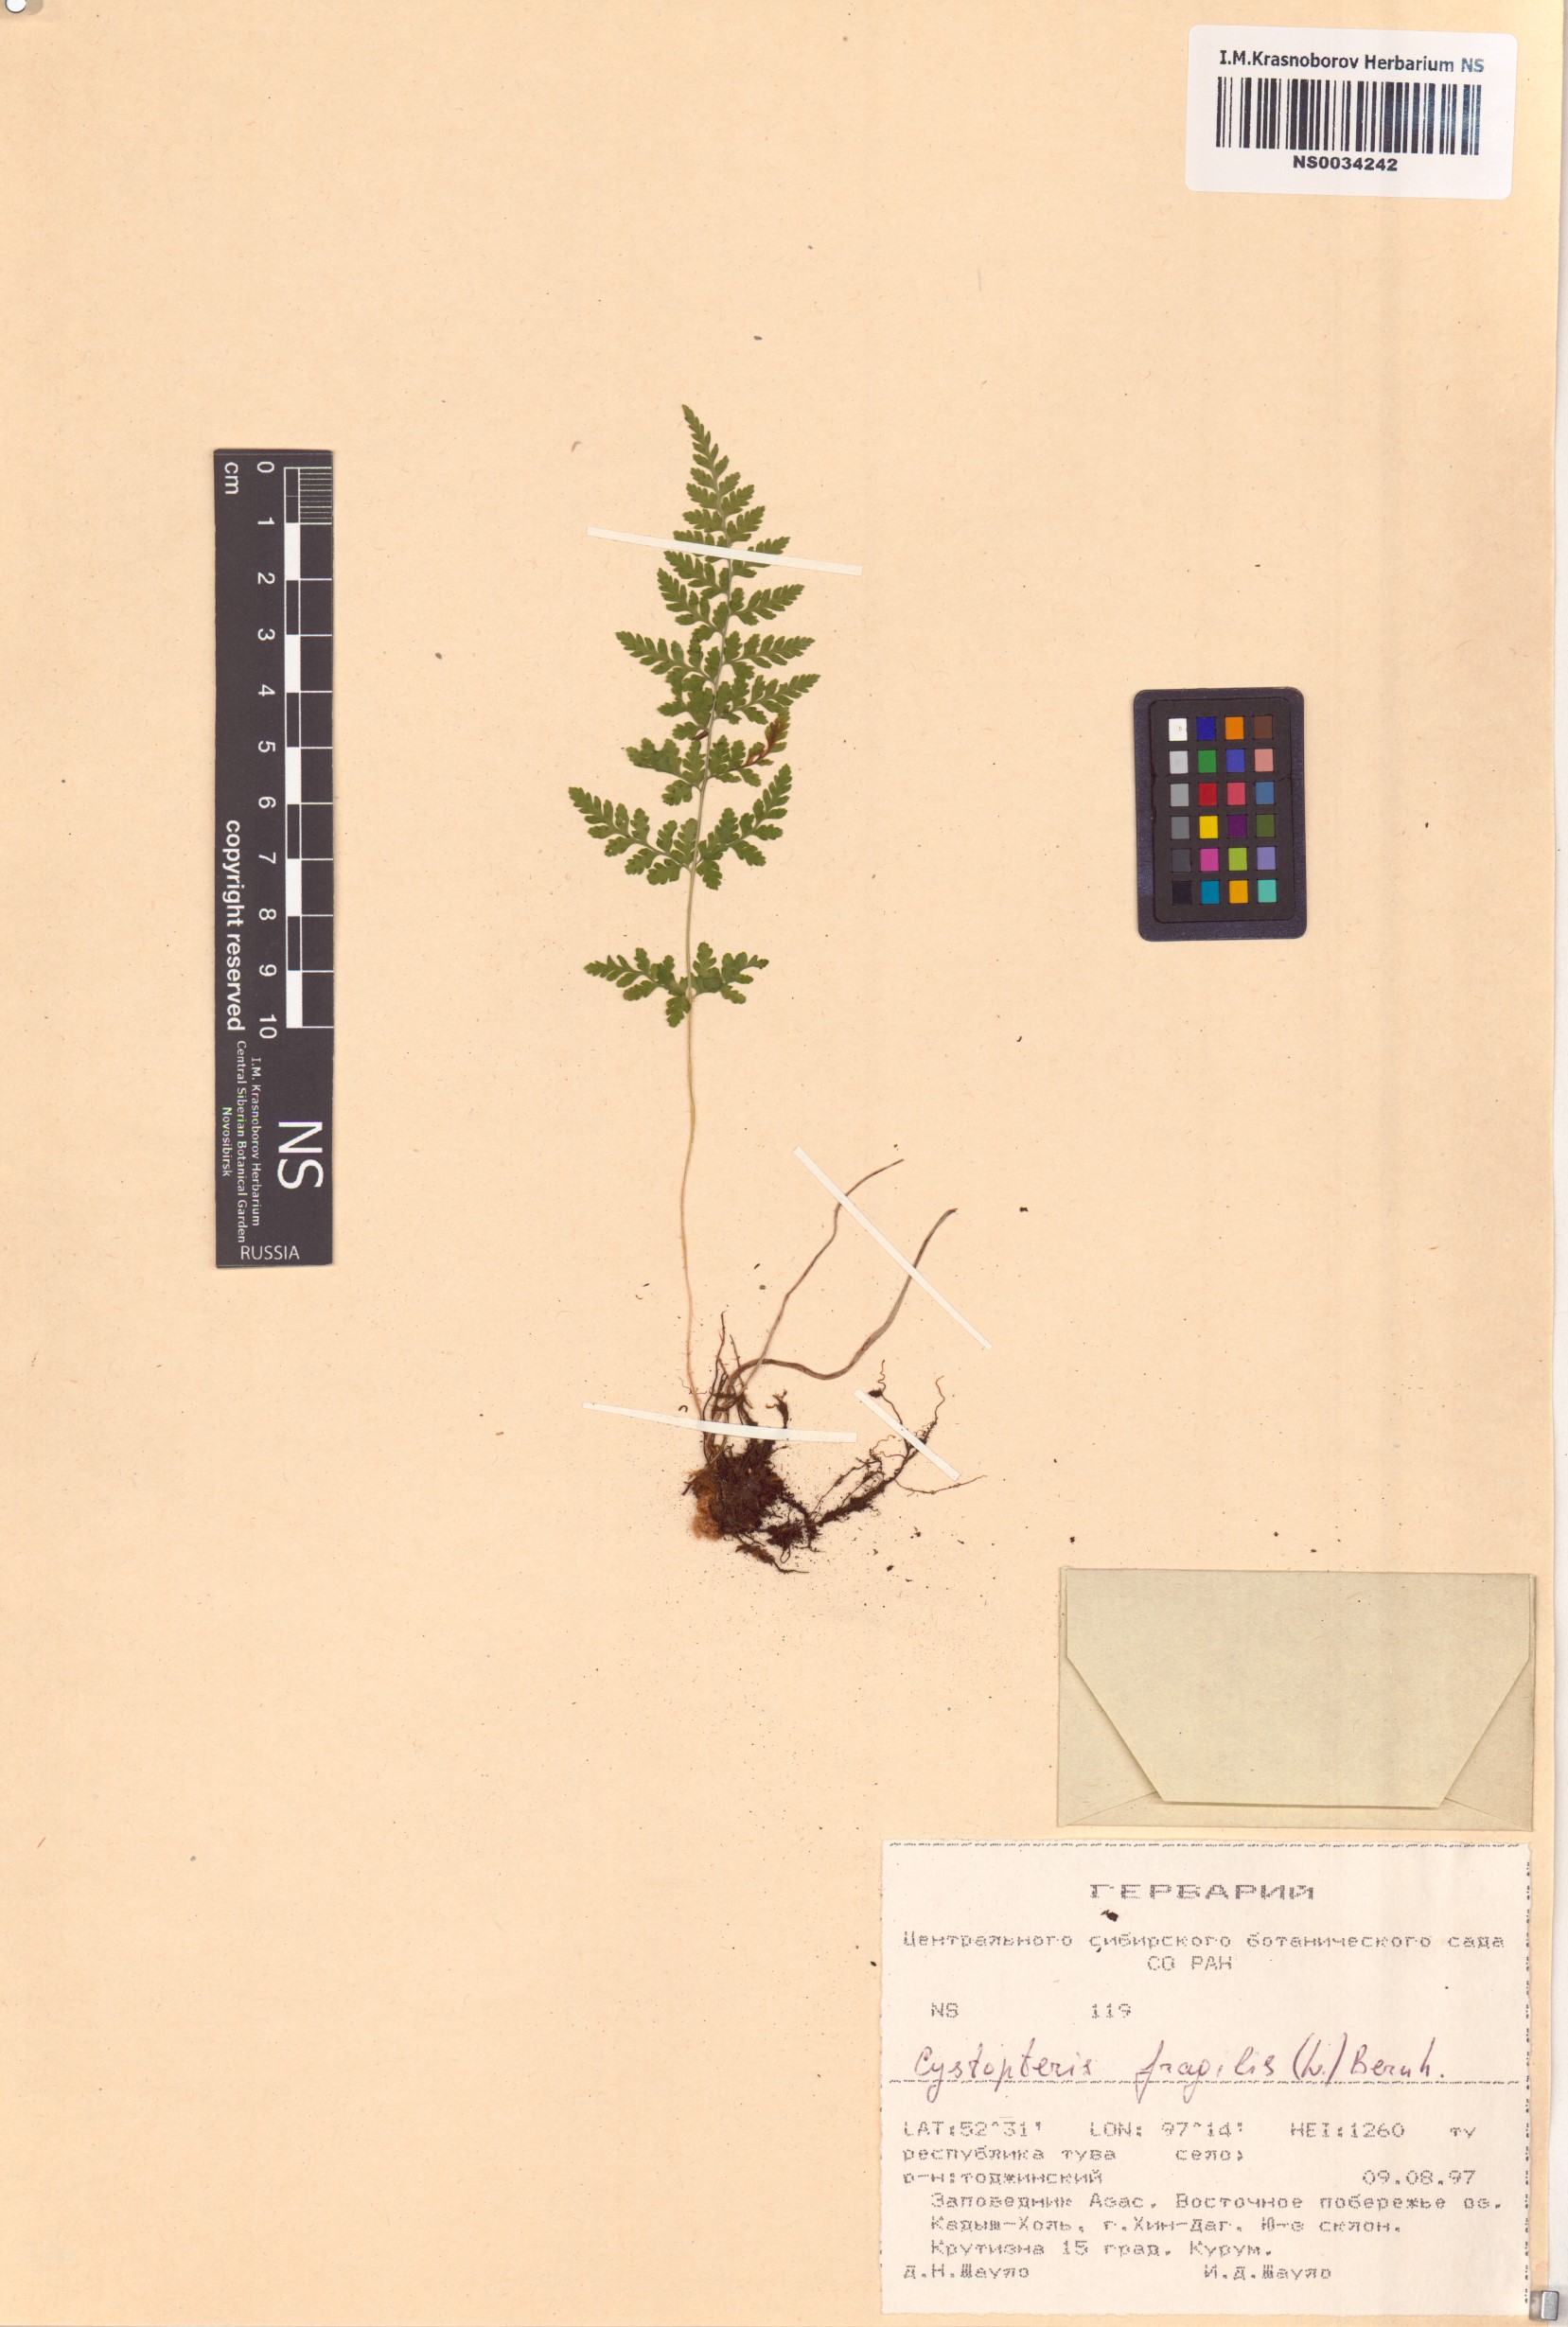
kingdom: Plantae
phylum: Tracheophyta
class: Polypodiopsida
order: Polypodiales
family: Cystopteridaceae
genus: Cystopteris
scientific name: Cystopteris fragilis
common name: Brittle bladder fern
